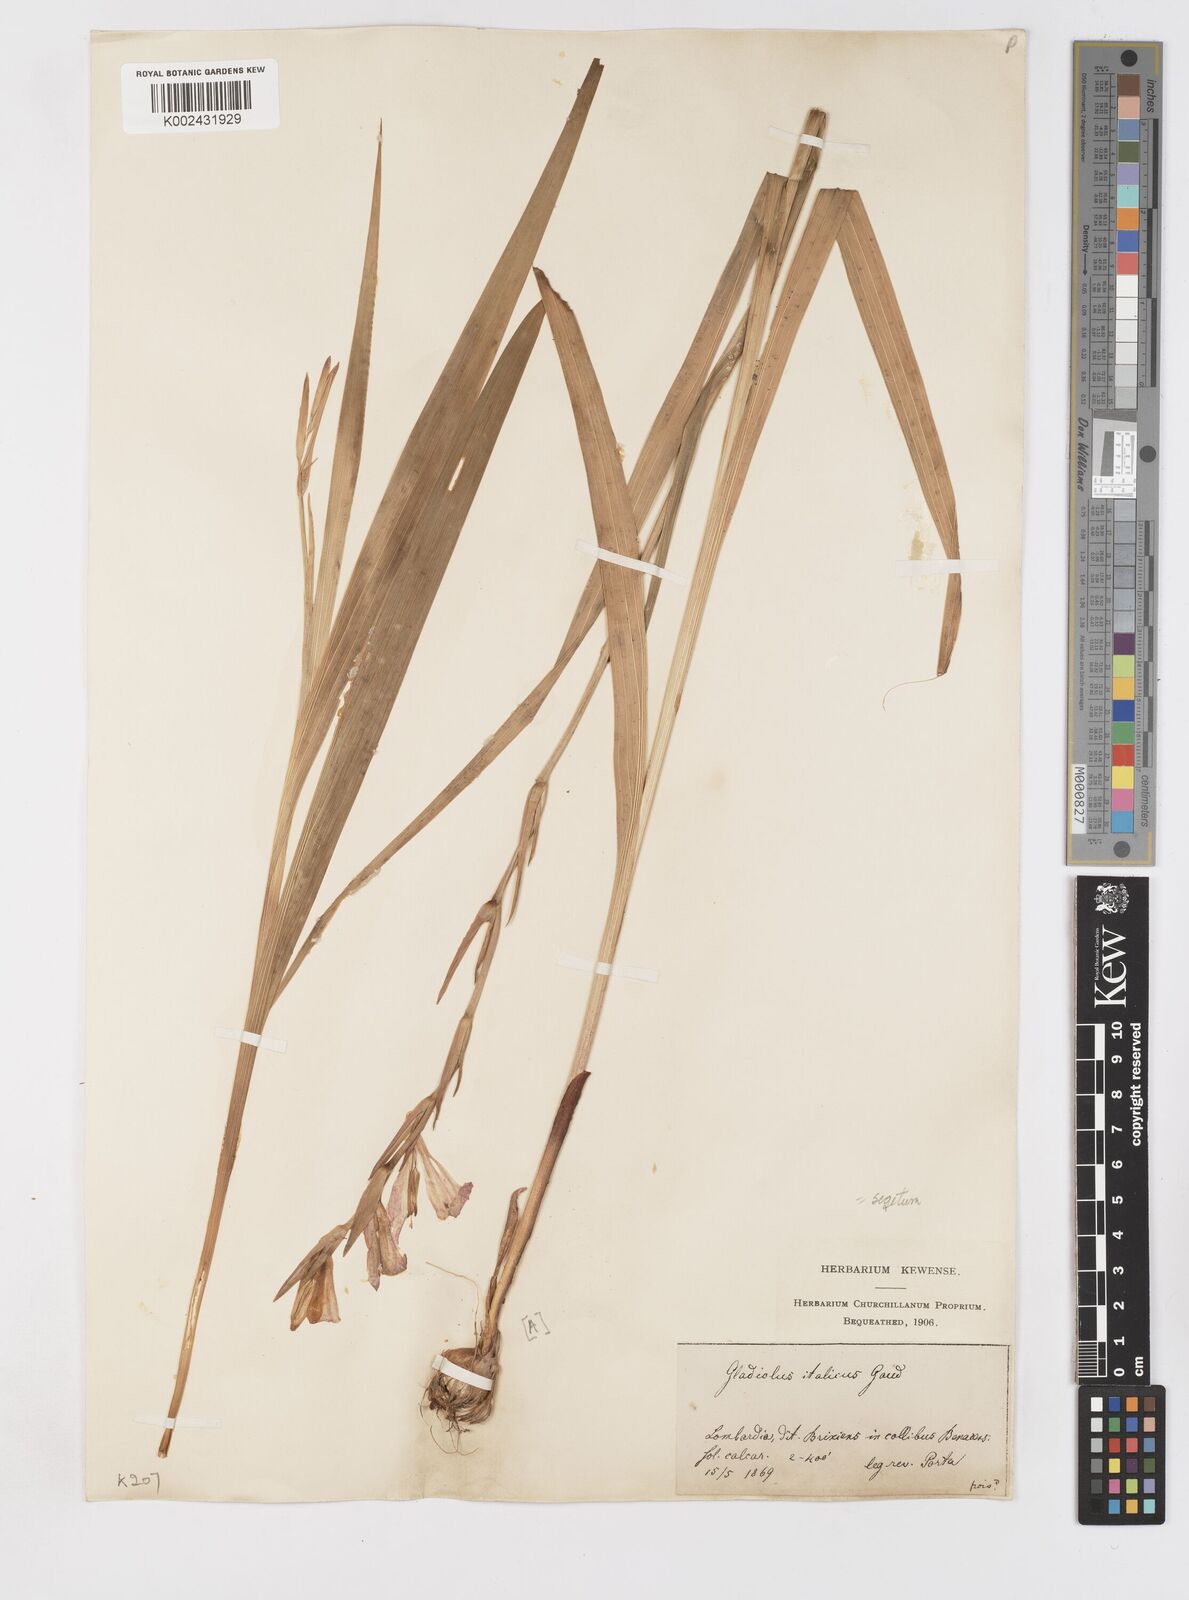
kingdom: Plantae
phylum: Tracheophyta
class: Liliopsida
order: Asparagales
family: Iridaceae
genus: Gladiolus
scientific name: Gladiolus italicus
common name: Field gladiolus
